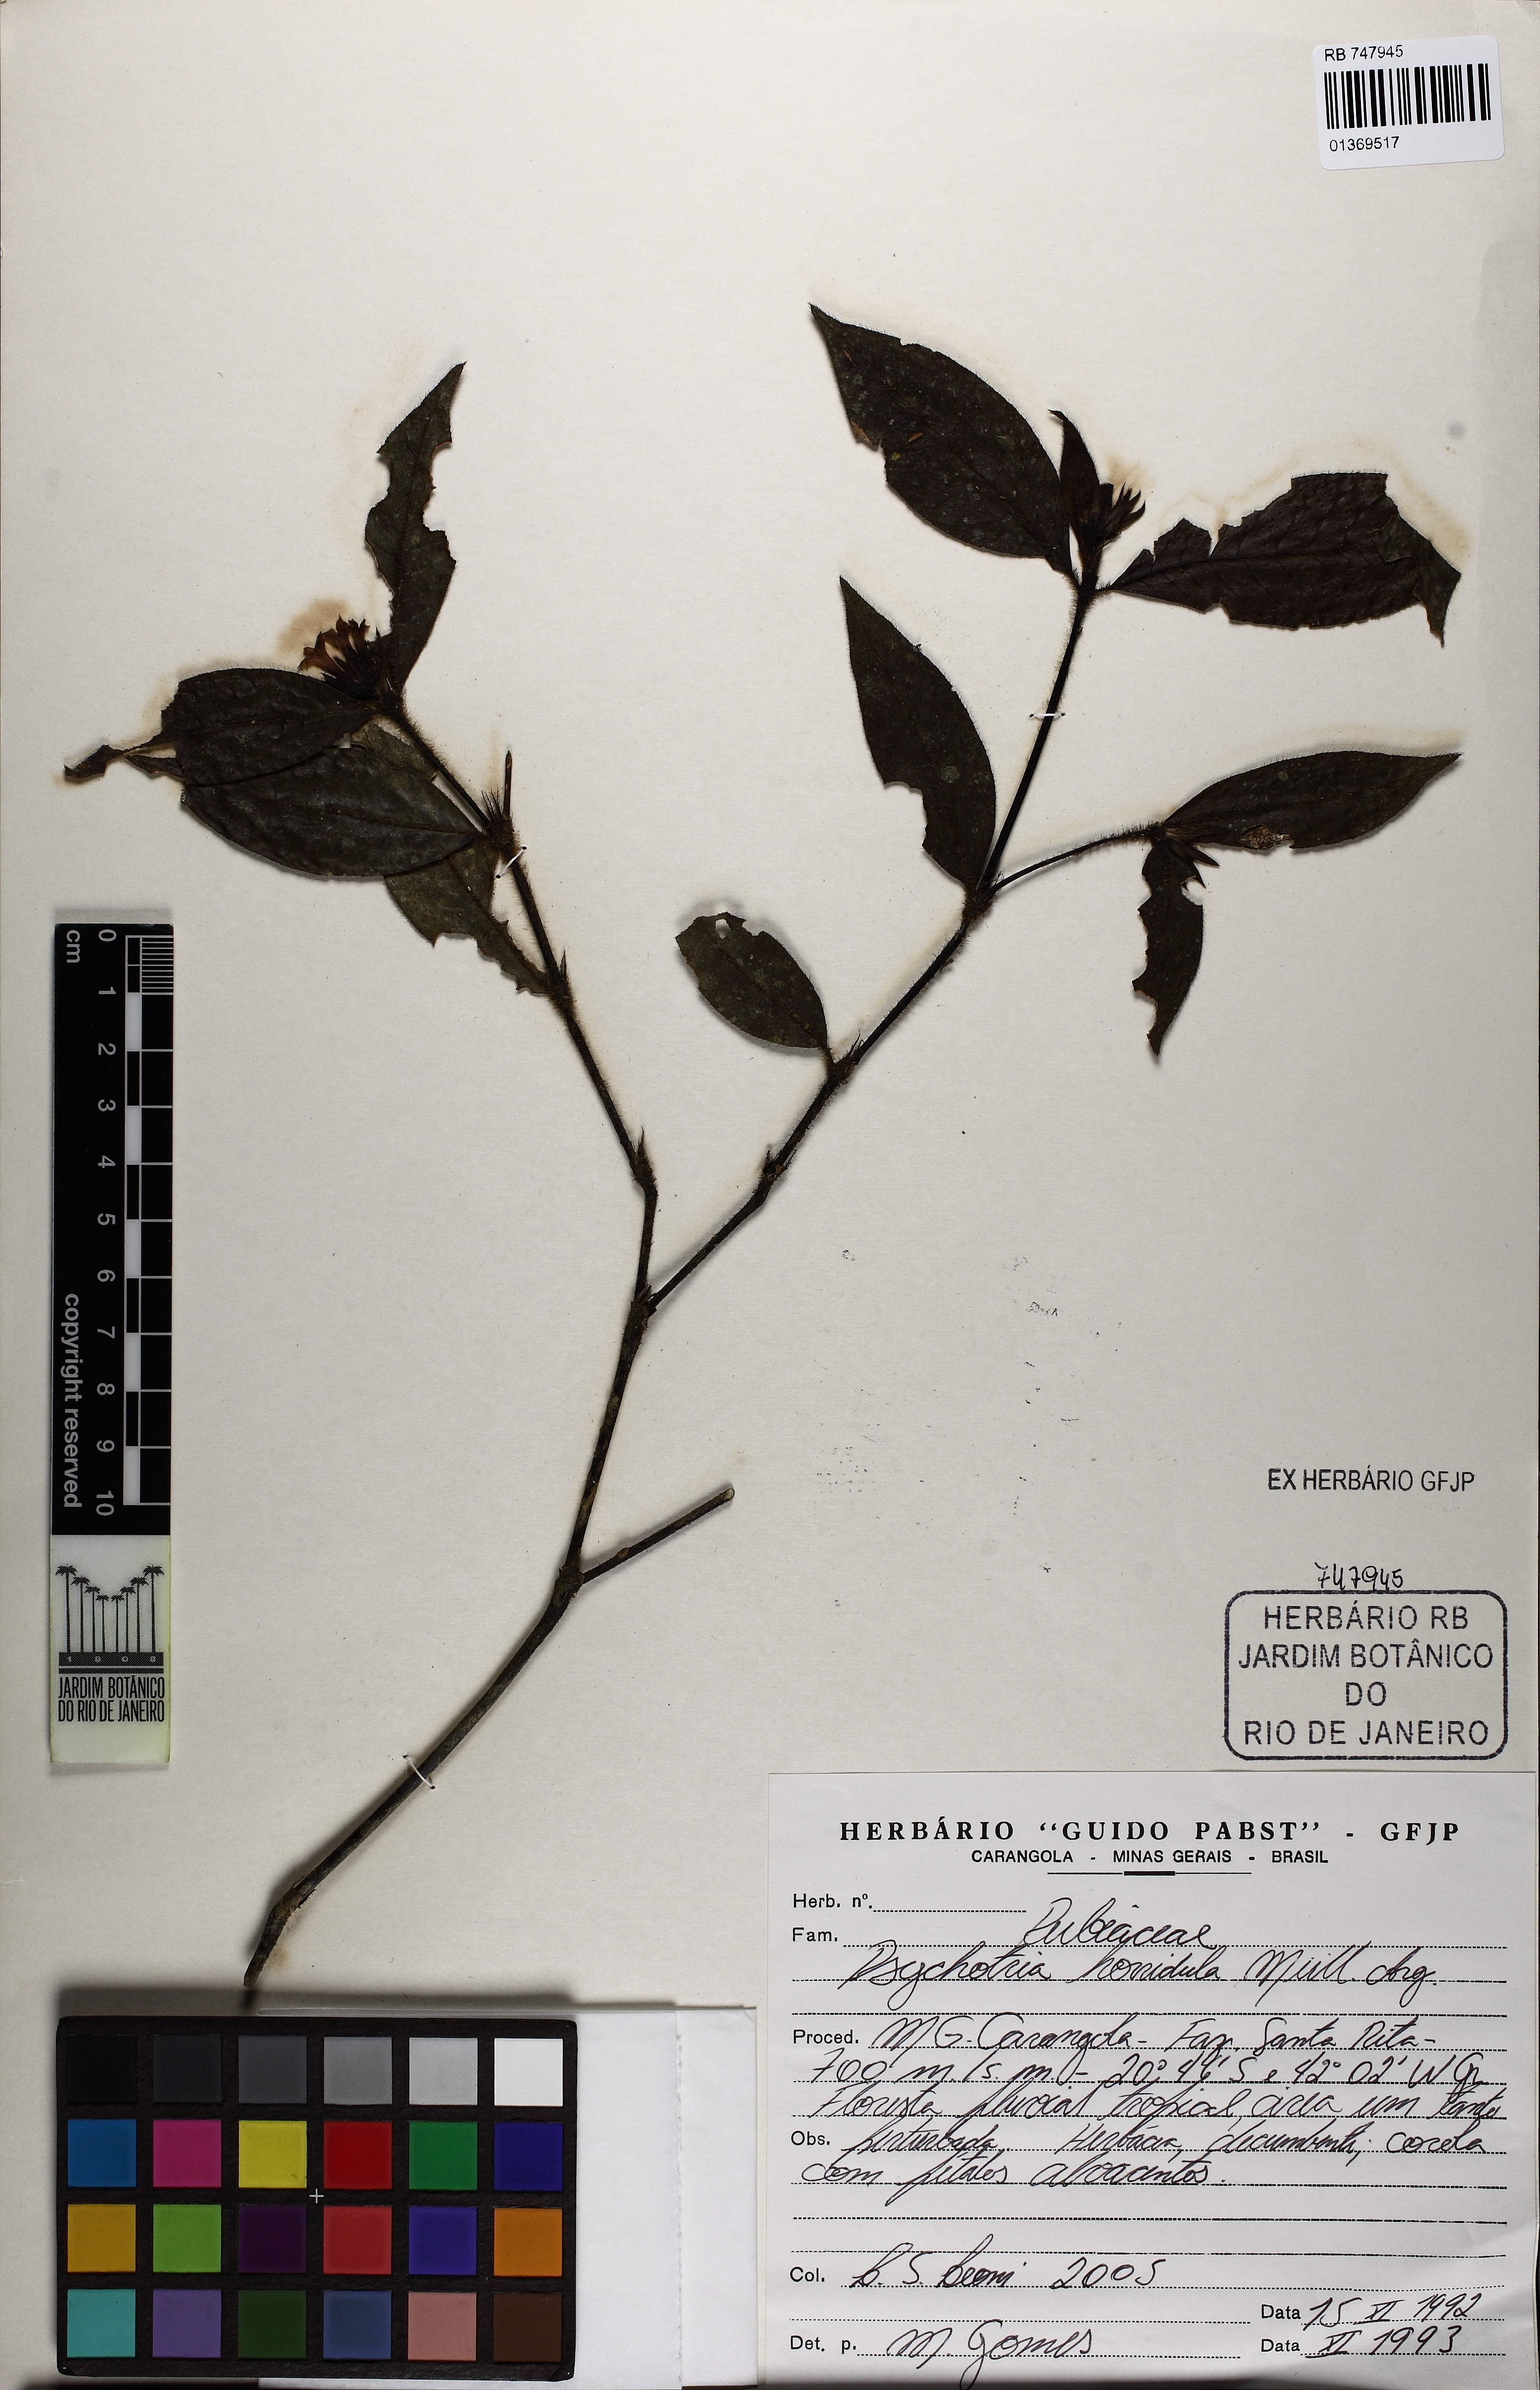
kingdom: Plantae
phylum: Tracheophyta
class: Magnoliopsida
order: Gentianales
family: Rubiaceae
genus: Palicourea
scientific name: Palicourea iodotricha
